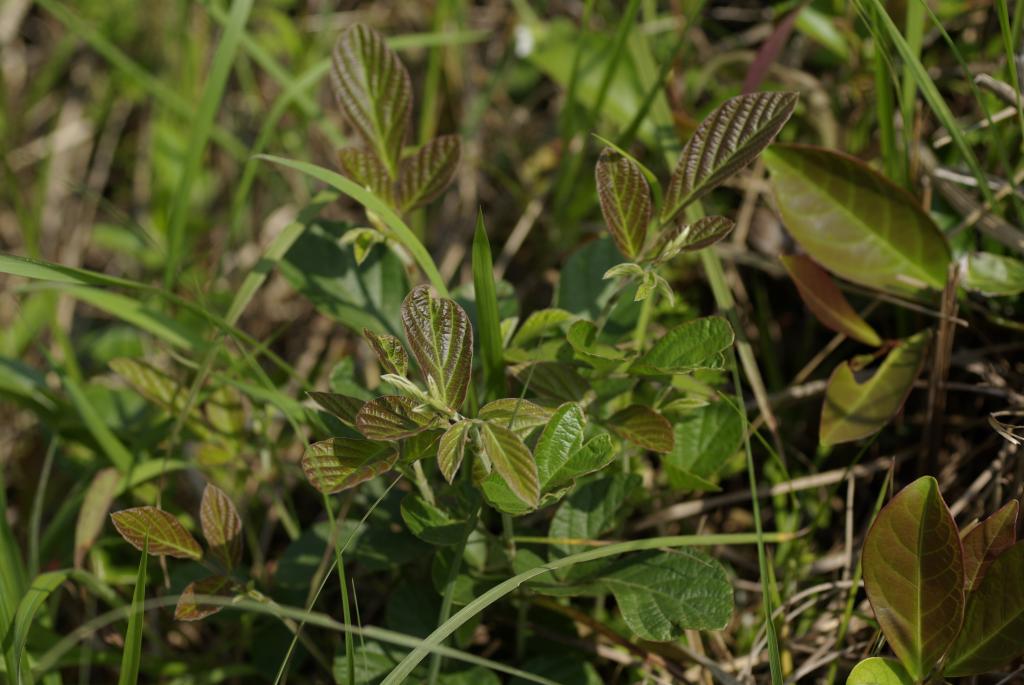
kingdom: Plantae
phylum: Tracheophyta
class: Magnoliopsida
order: Fabales
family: Fabaceae
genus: Phyllodium
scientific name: Phyllodium pulchellum
